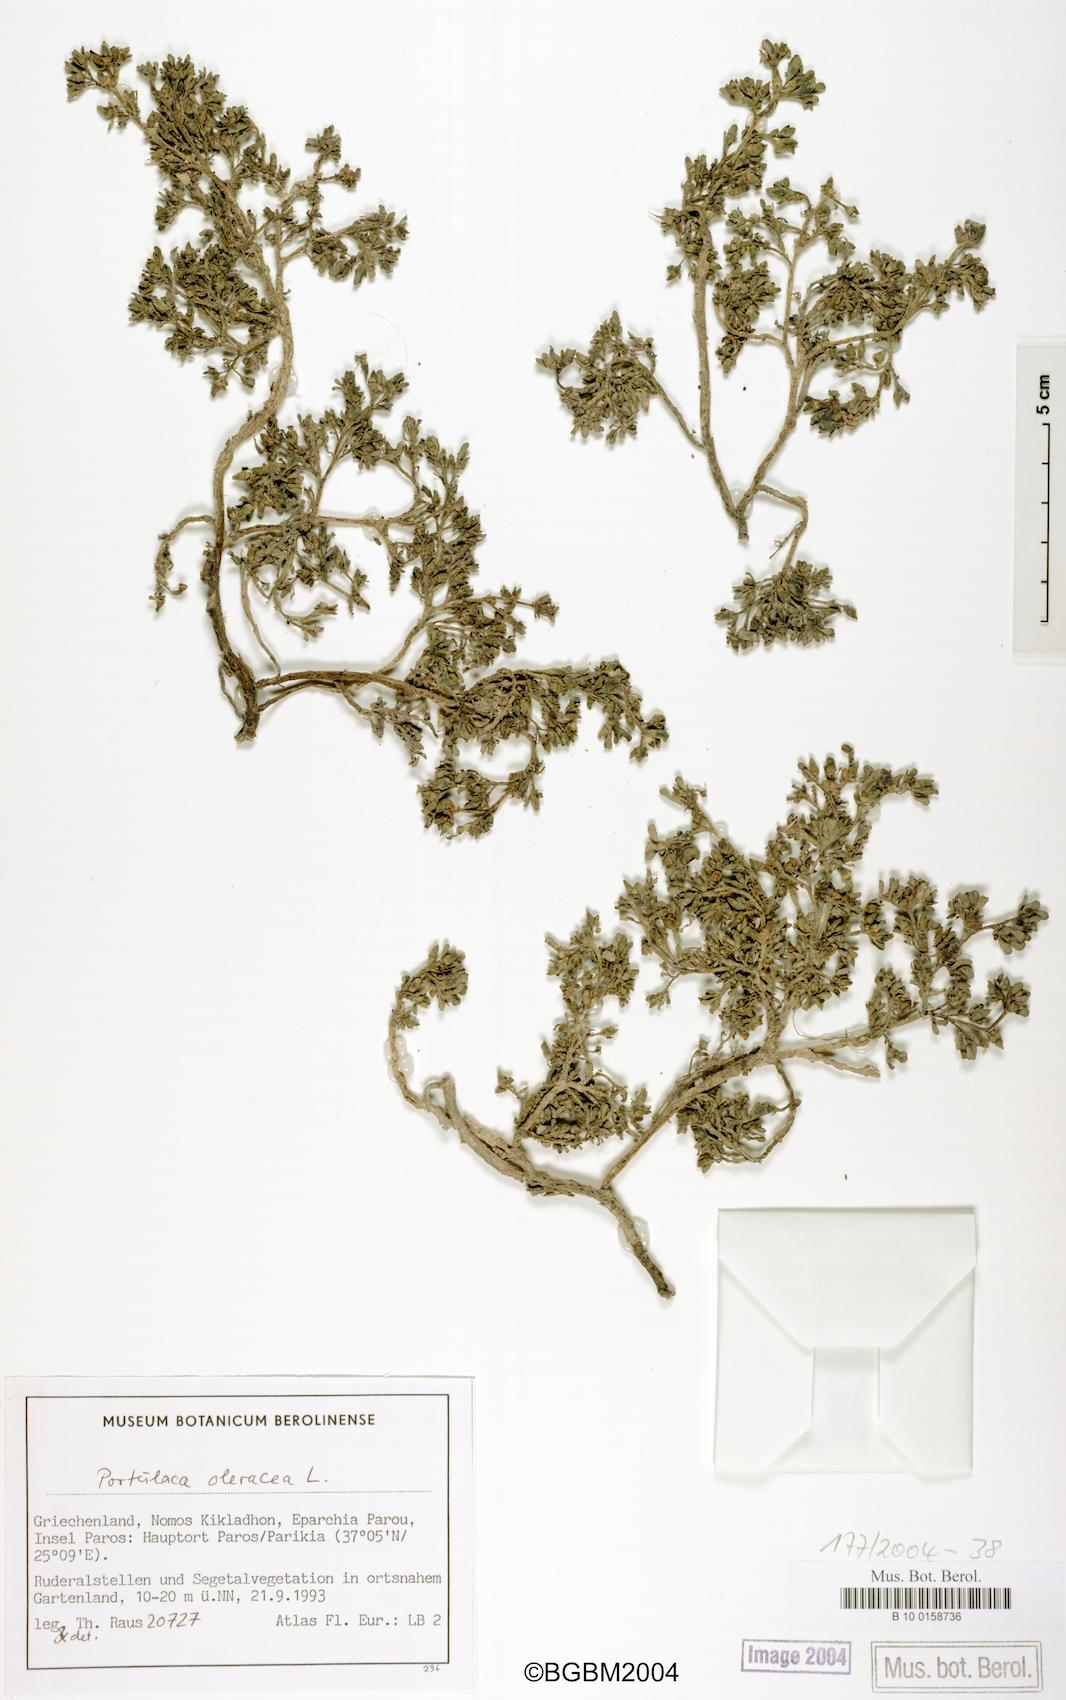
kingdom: Plantae
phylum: Tracheophyta
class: Magnoliopsida
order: Caryophyllales
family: Portulacaceae
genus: Portulaca
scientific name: Portulaca oleracea
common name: Common purslane
